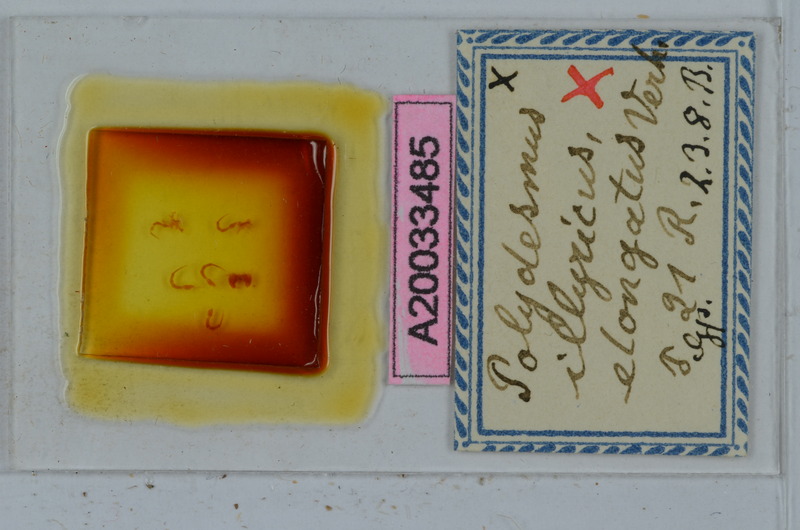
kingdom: Animalia
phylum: Arthropoda
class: Diplopoda
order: Polydesmida
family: Polydesmidae
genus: Polydesmus
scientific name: Polydesmus complanatus
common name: Flat-backed millipede
